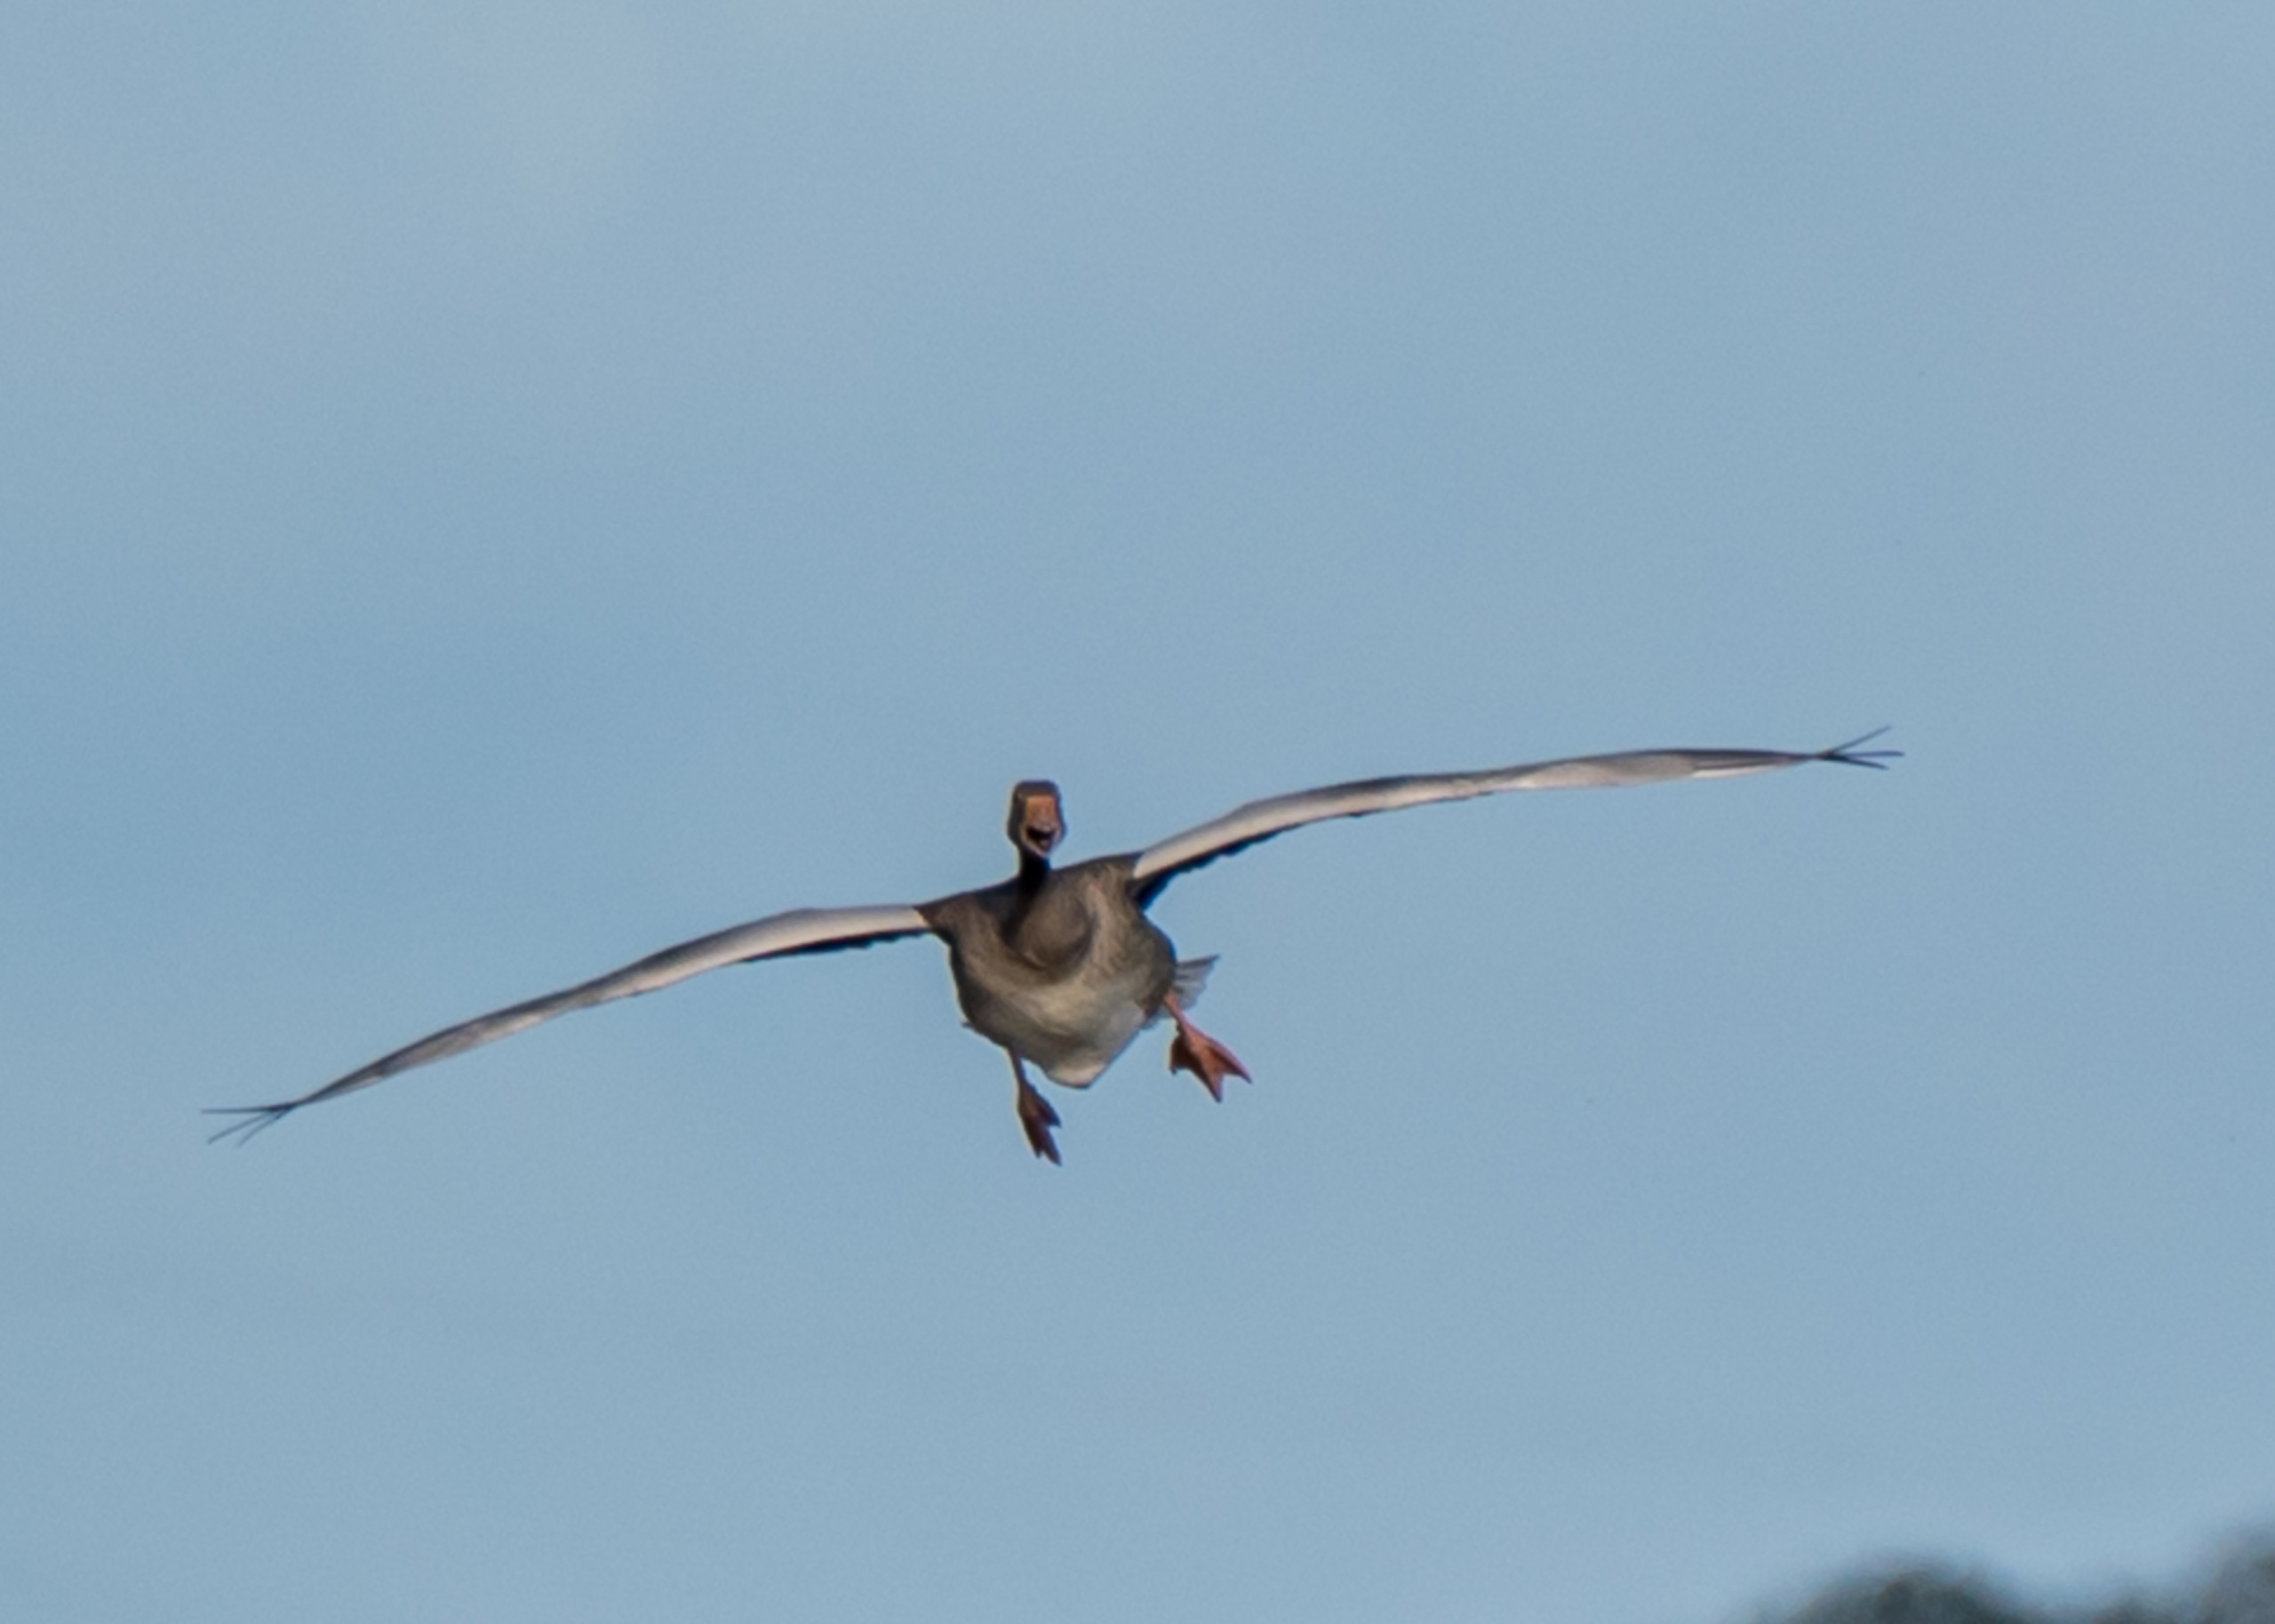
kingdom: Animalia
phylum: Chordata
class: Aves
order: Anseriformes
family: Anatidae
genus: Anser
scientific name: Anser anser
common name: Grågås
